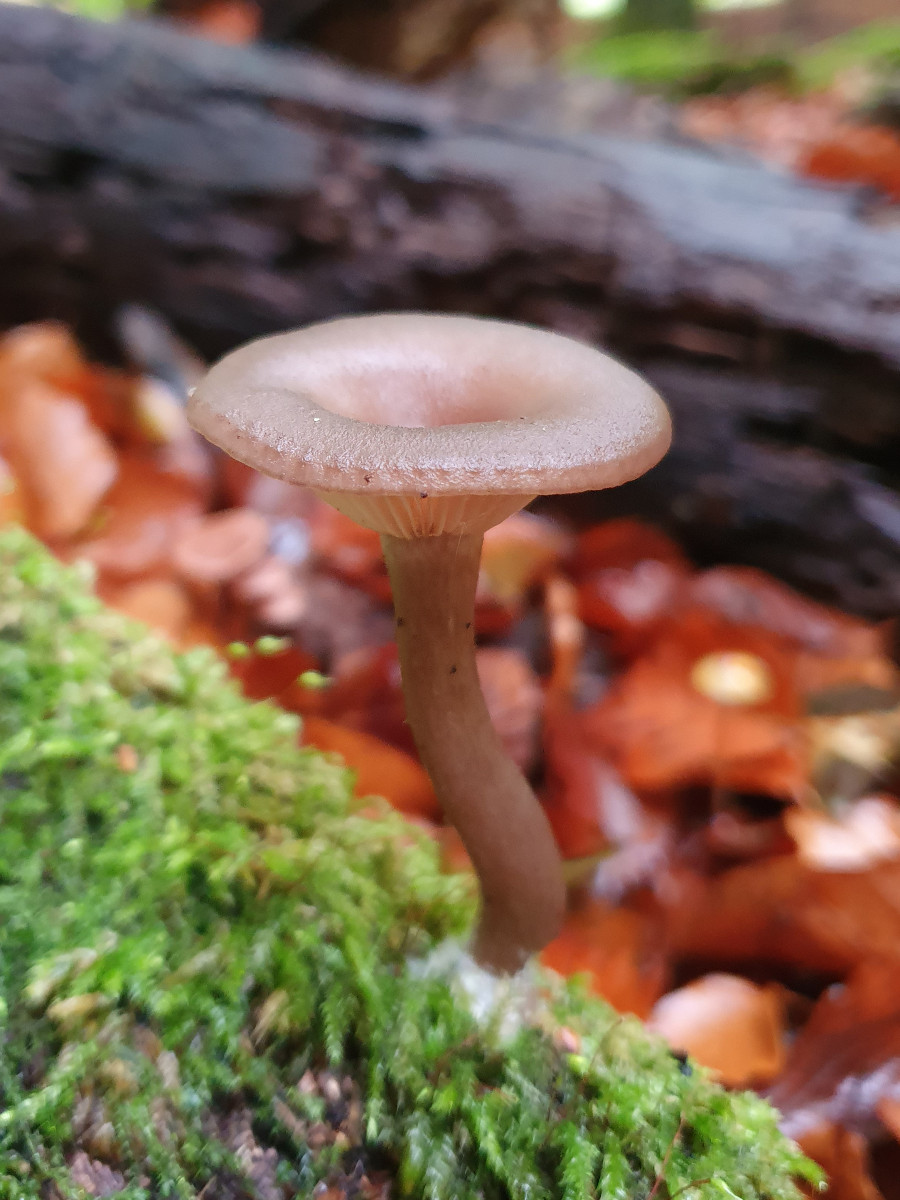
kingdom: Fungi
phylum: Basidiomycota
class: Agaricomycetes
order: Agaricales
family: Pseudoclitocybaceae
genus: Pseudoclitocybe
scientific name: Pseudoclitocybe cyathiformis
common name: almindelig bægertragthat
